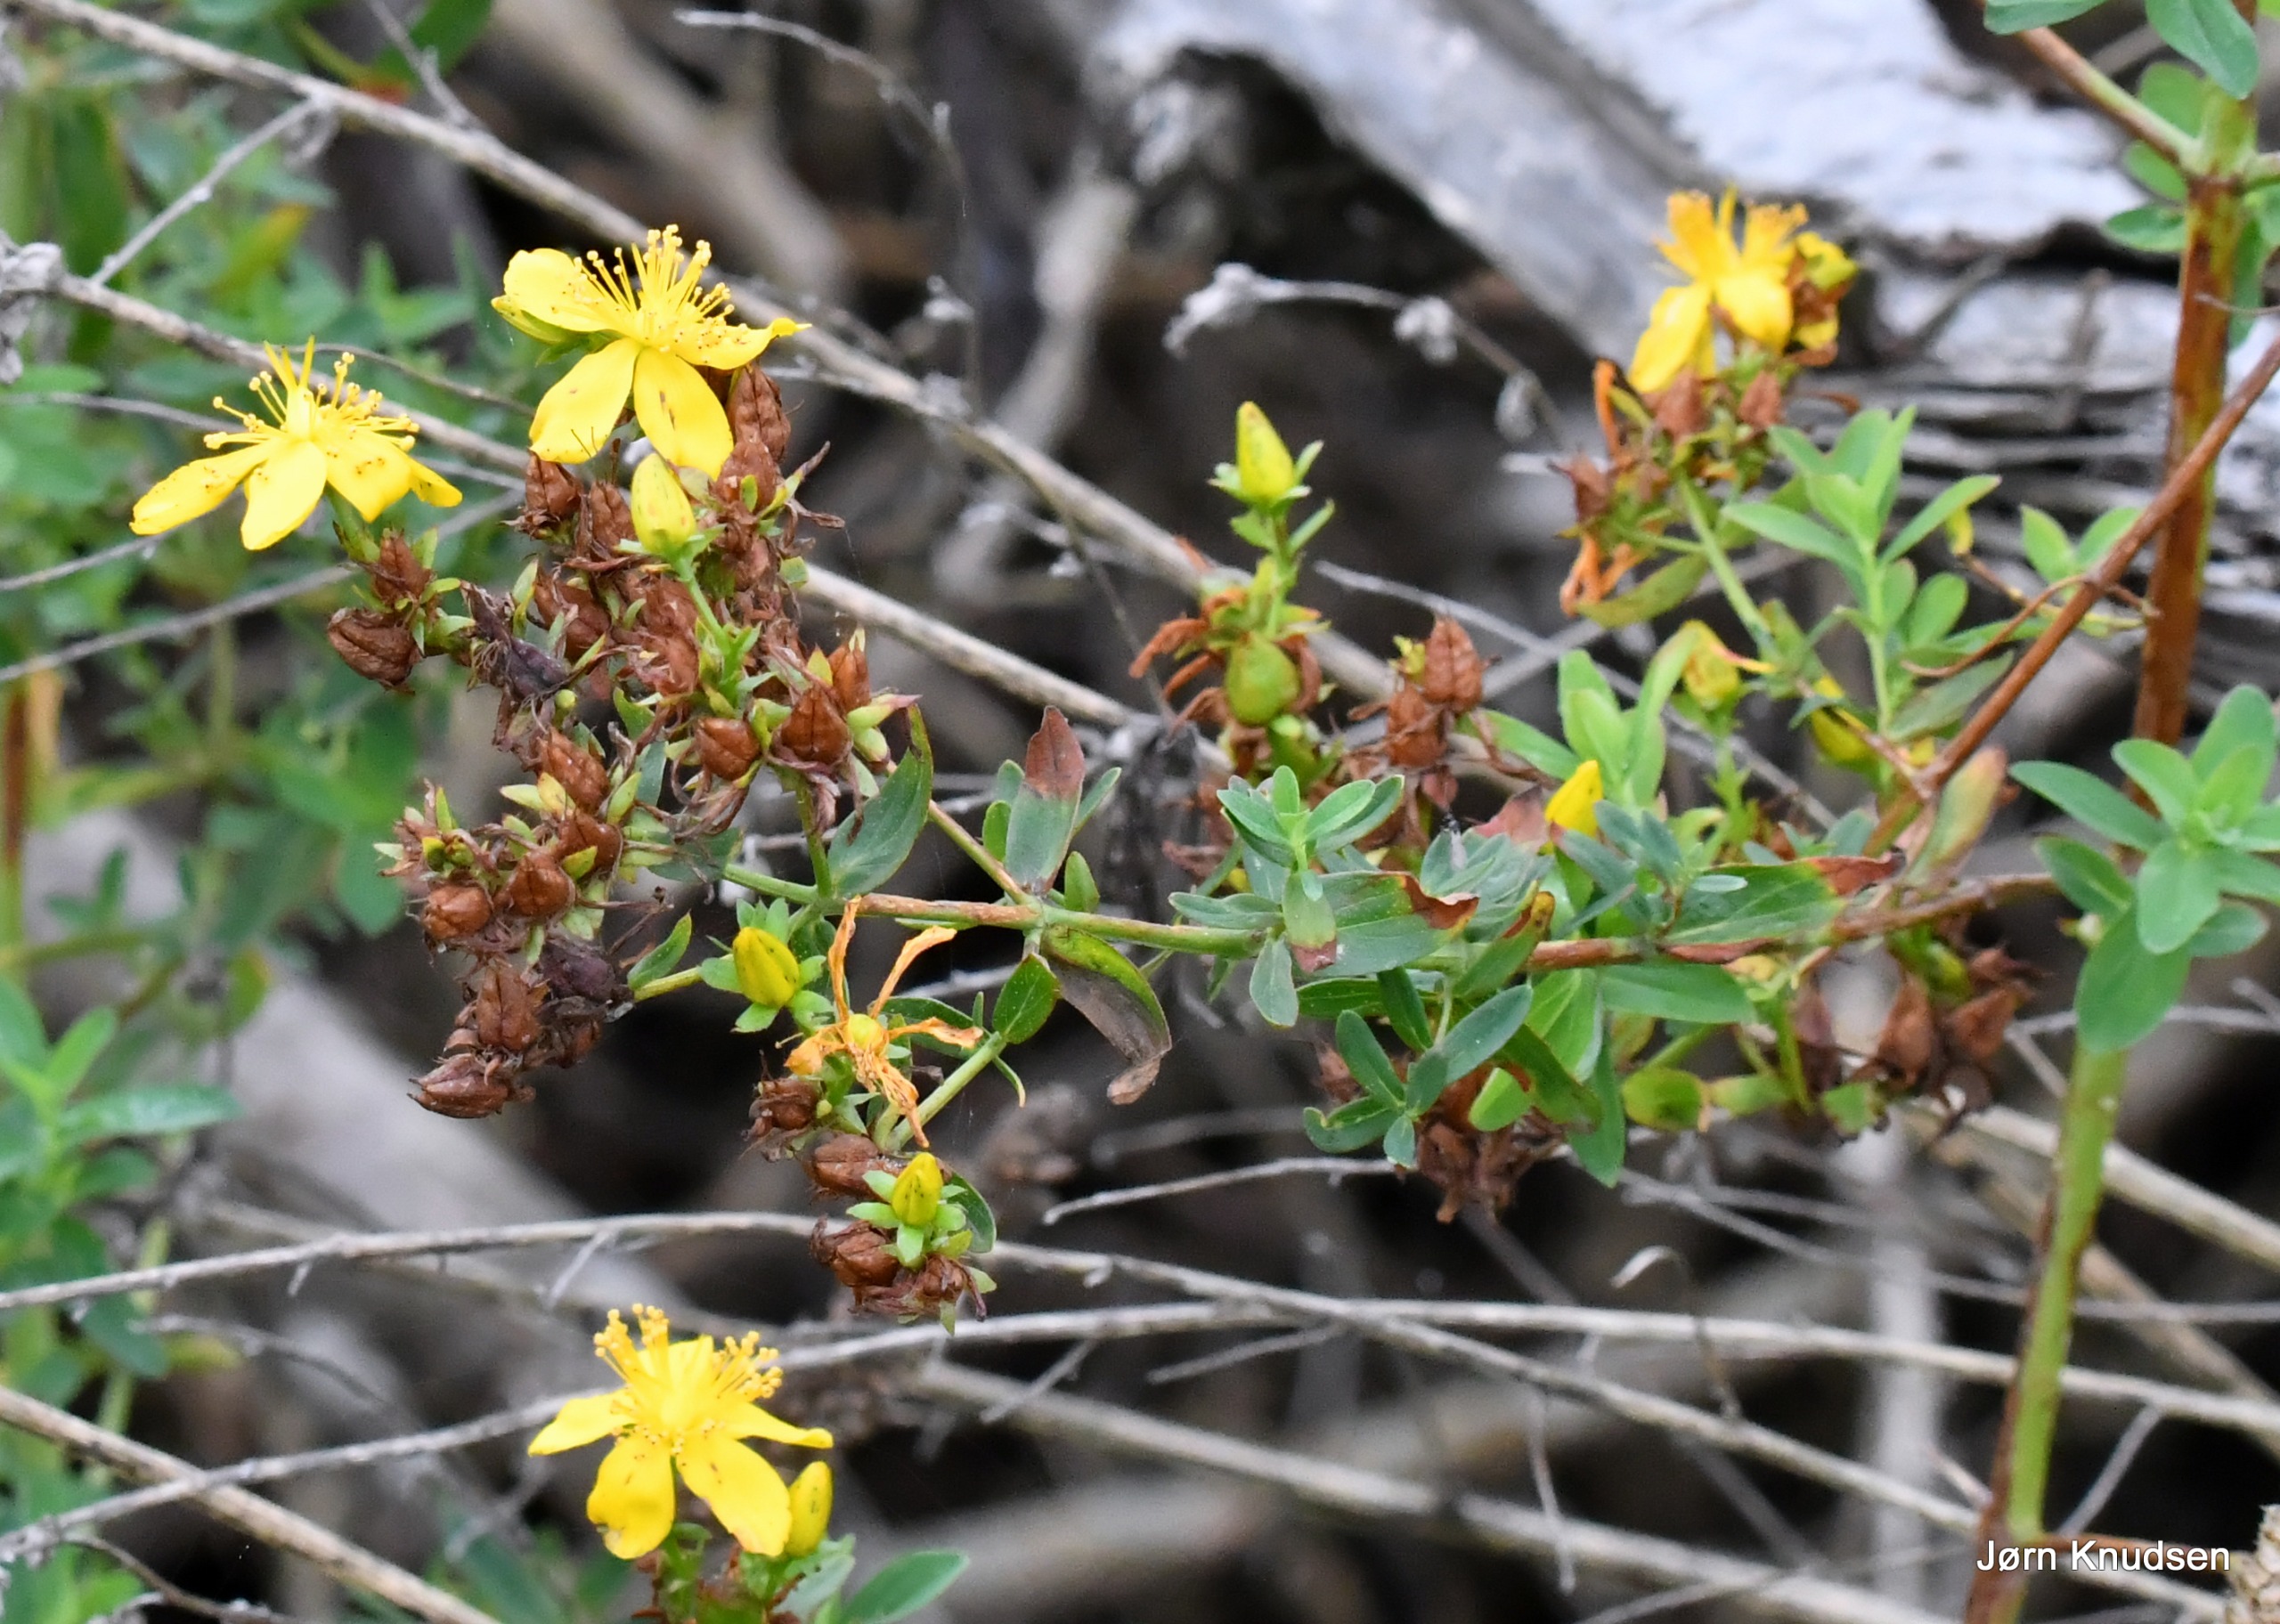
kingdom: Plantae
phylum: Tracheophyta
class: Magnoliopsida
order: Malpighiales
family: Hypericaceae
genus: Hypericum
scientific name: Hypericum perforatum
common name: Prikbladet perikon
